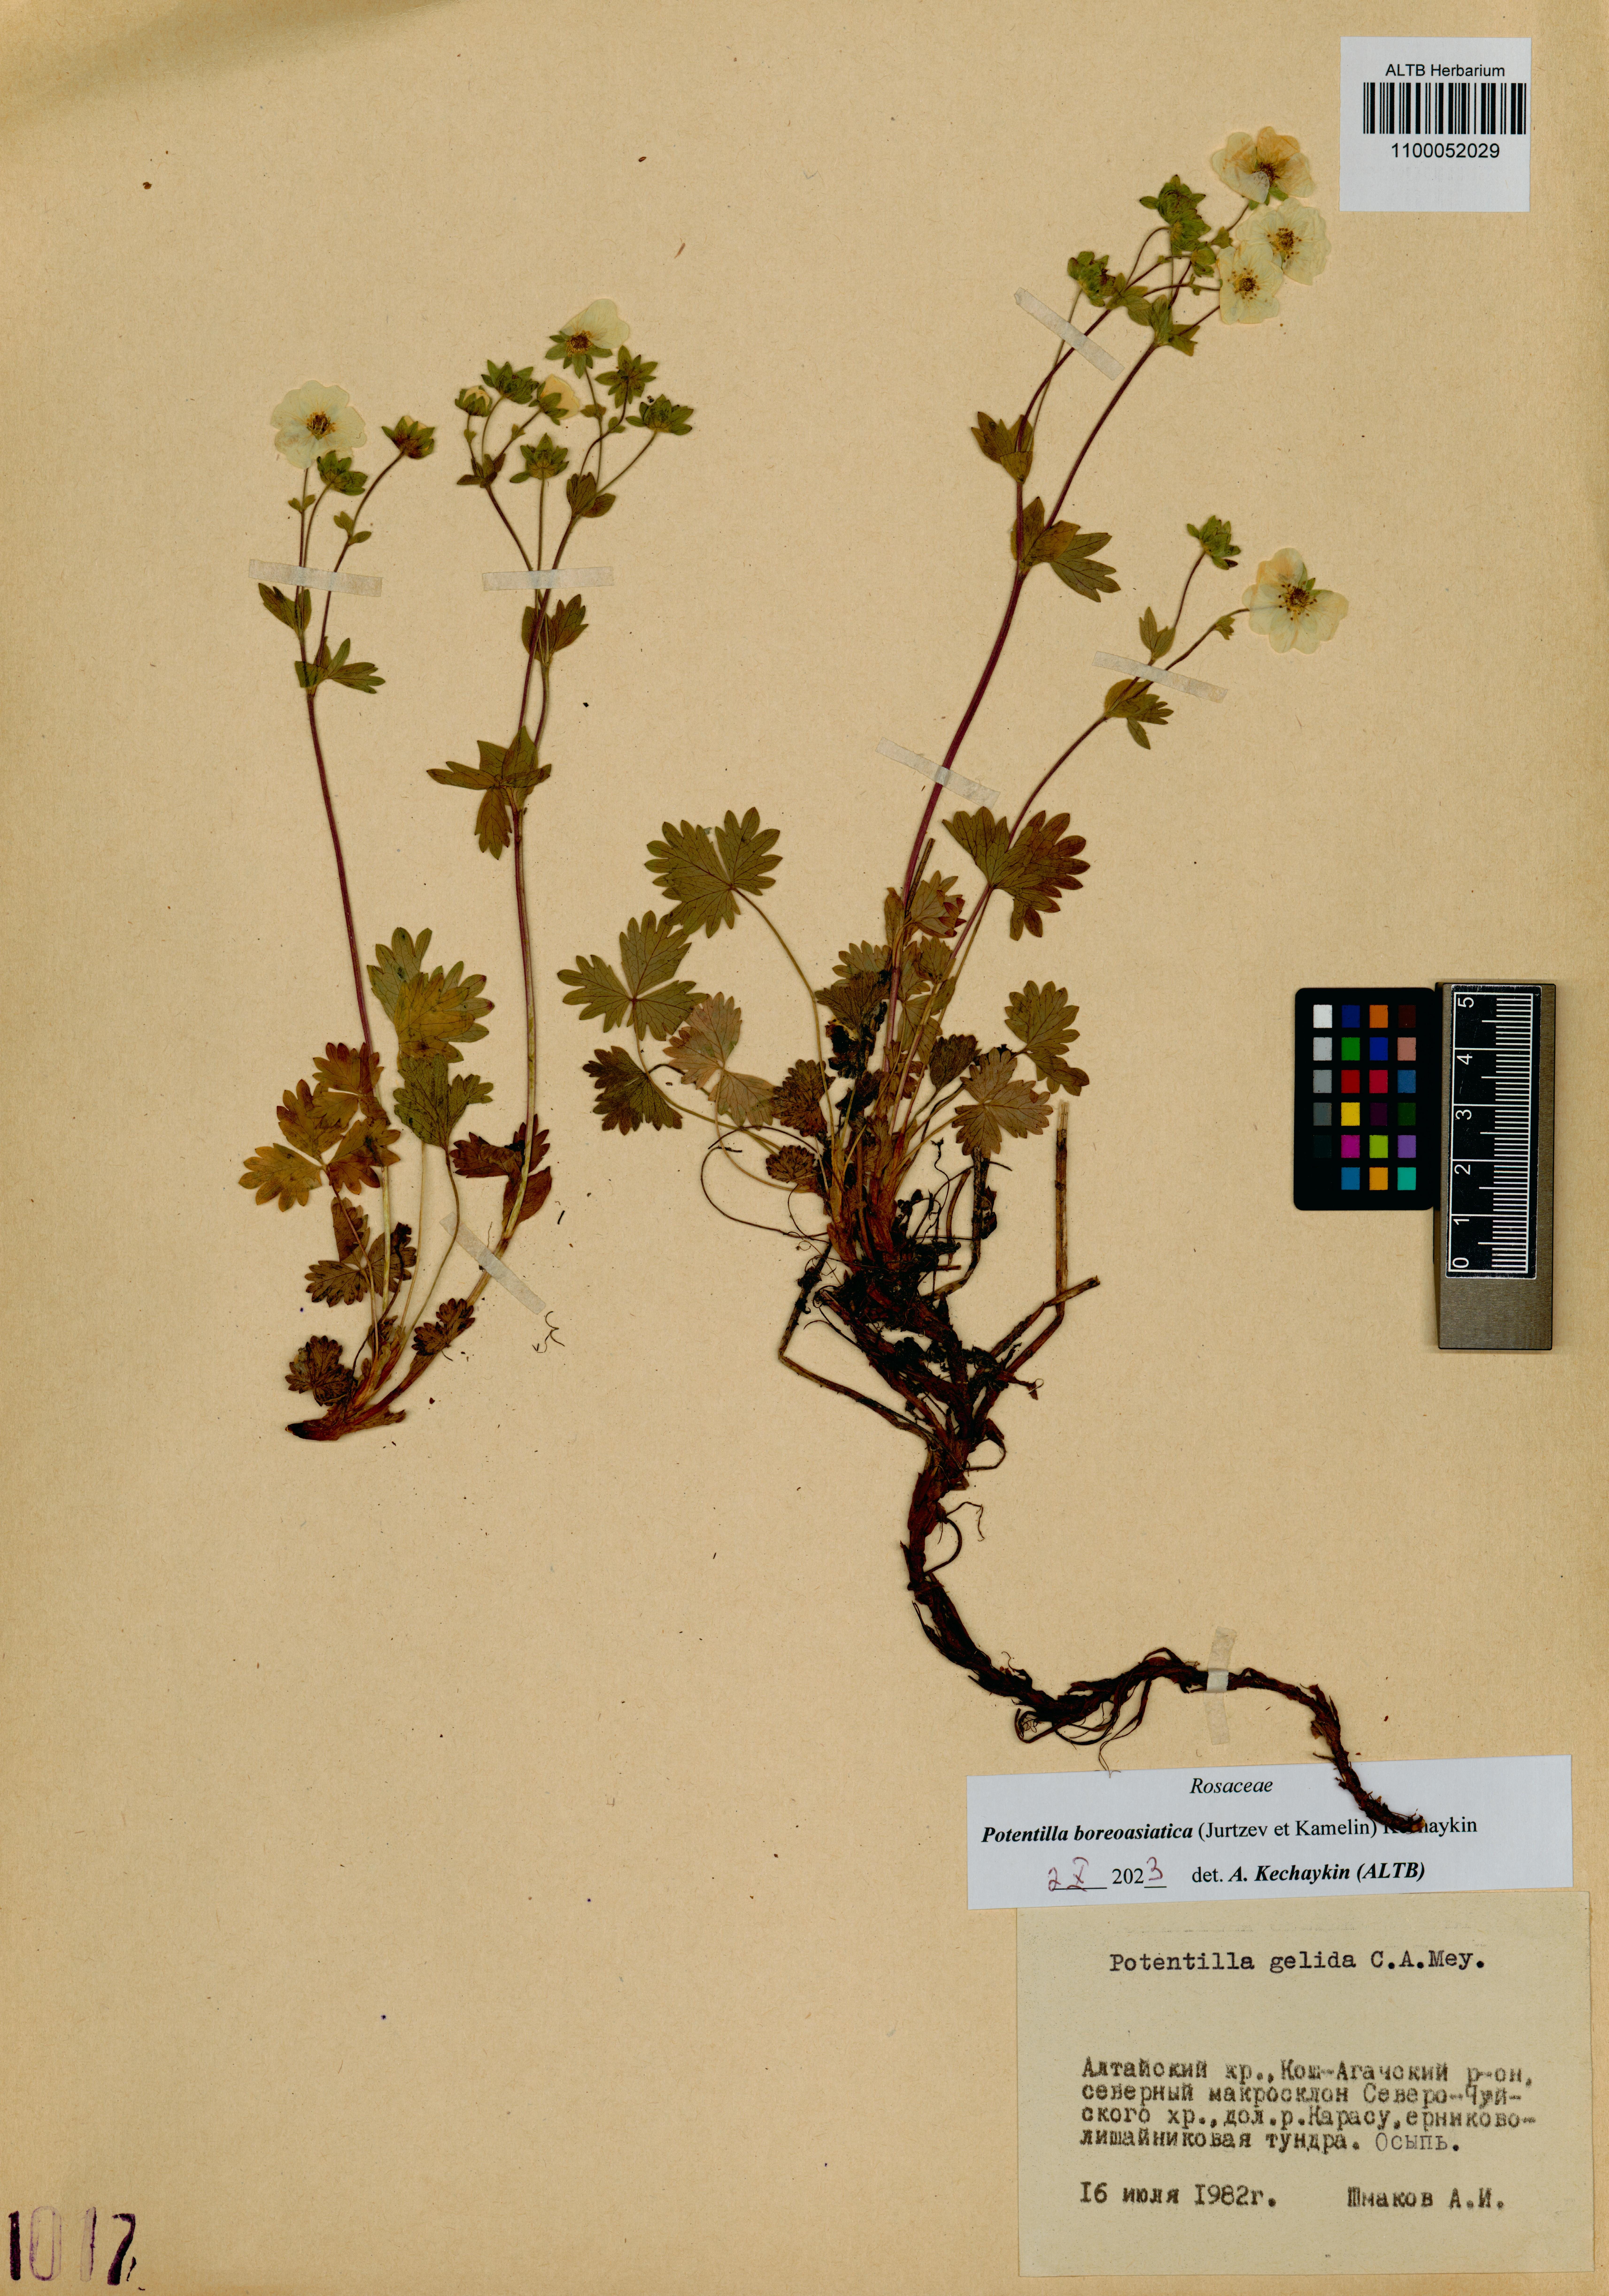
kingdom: Plantae
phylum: Tracheophyta
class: Magnoliopsida
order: Rosales
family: Rosaceae
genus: Potentilla
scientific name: Potentilla
